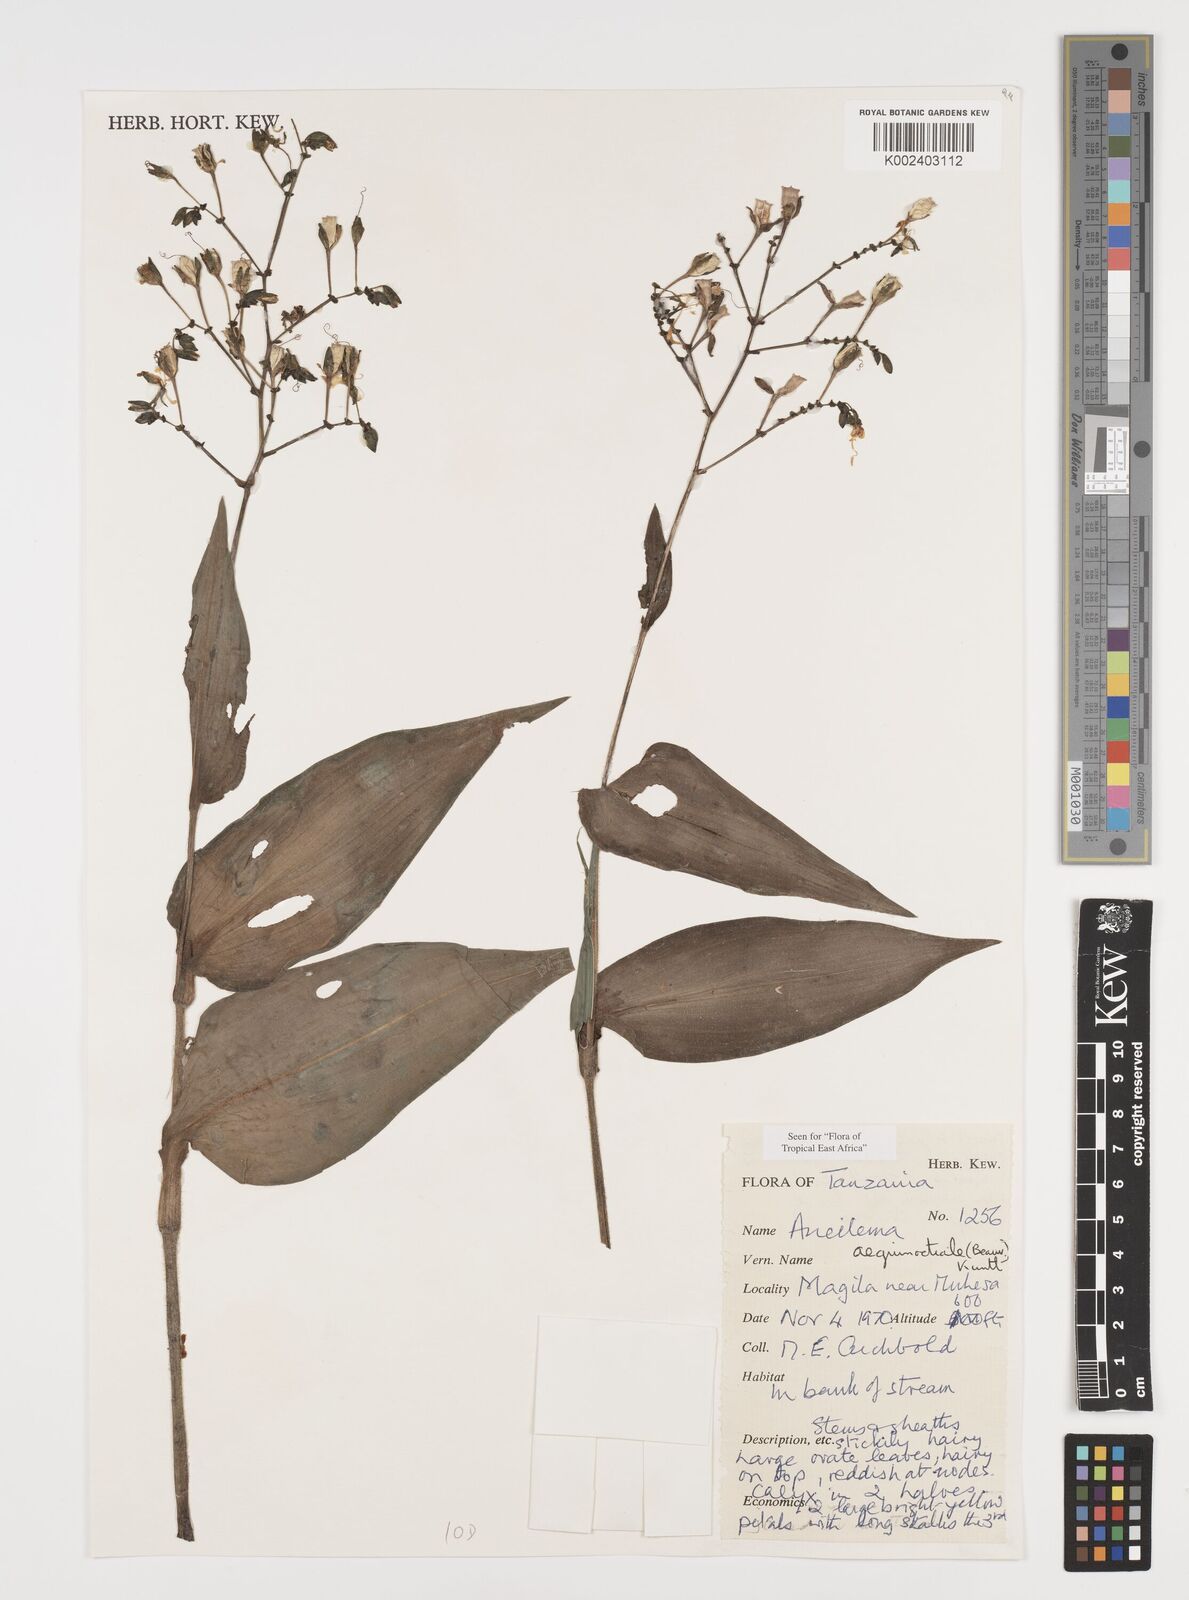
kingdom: Plantae
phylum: Tracheophyta
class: Liliopsida
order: Commelinales
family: Commelinaceae
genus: Aneilema
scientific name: Aneilema aequinoctiale
